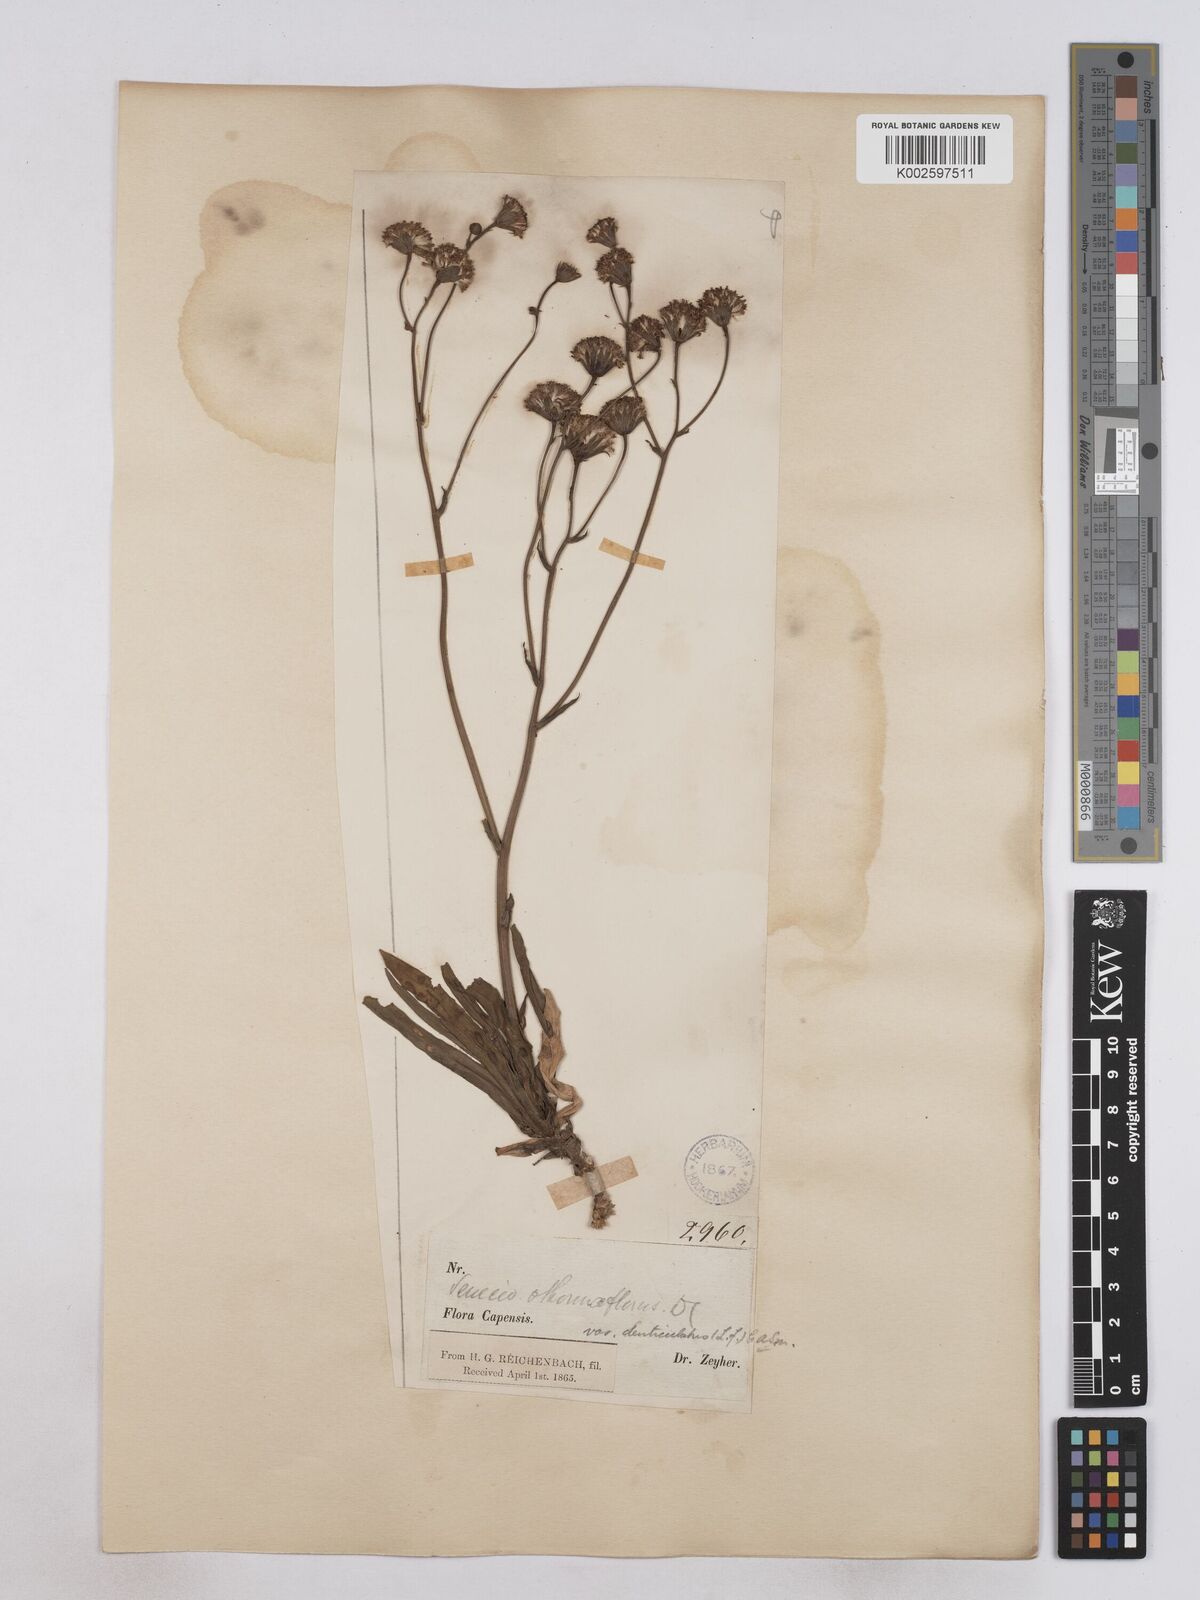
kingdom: Plantae
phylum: Tracheophyta
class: Magnoliopsida
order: Asterales
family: Asteraceae
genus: Senecio
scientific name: Senecio othonniflorus
